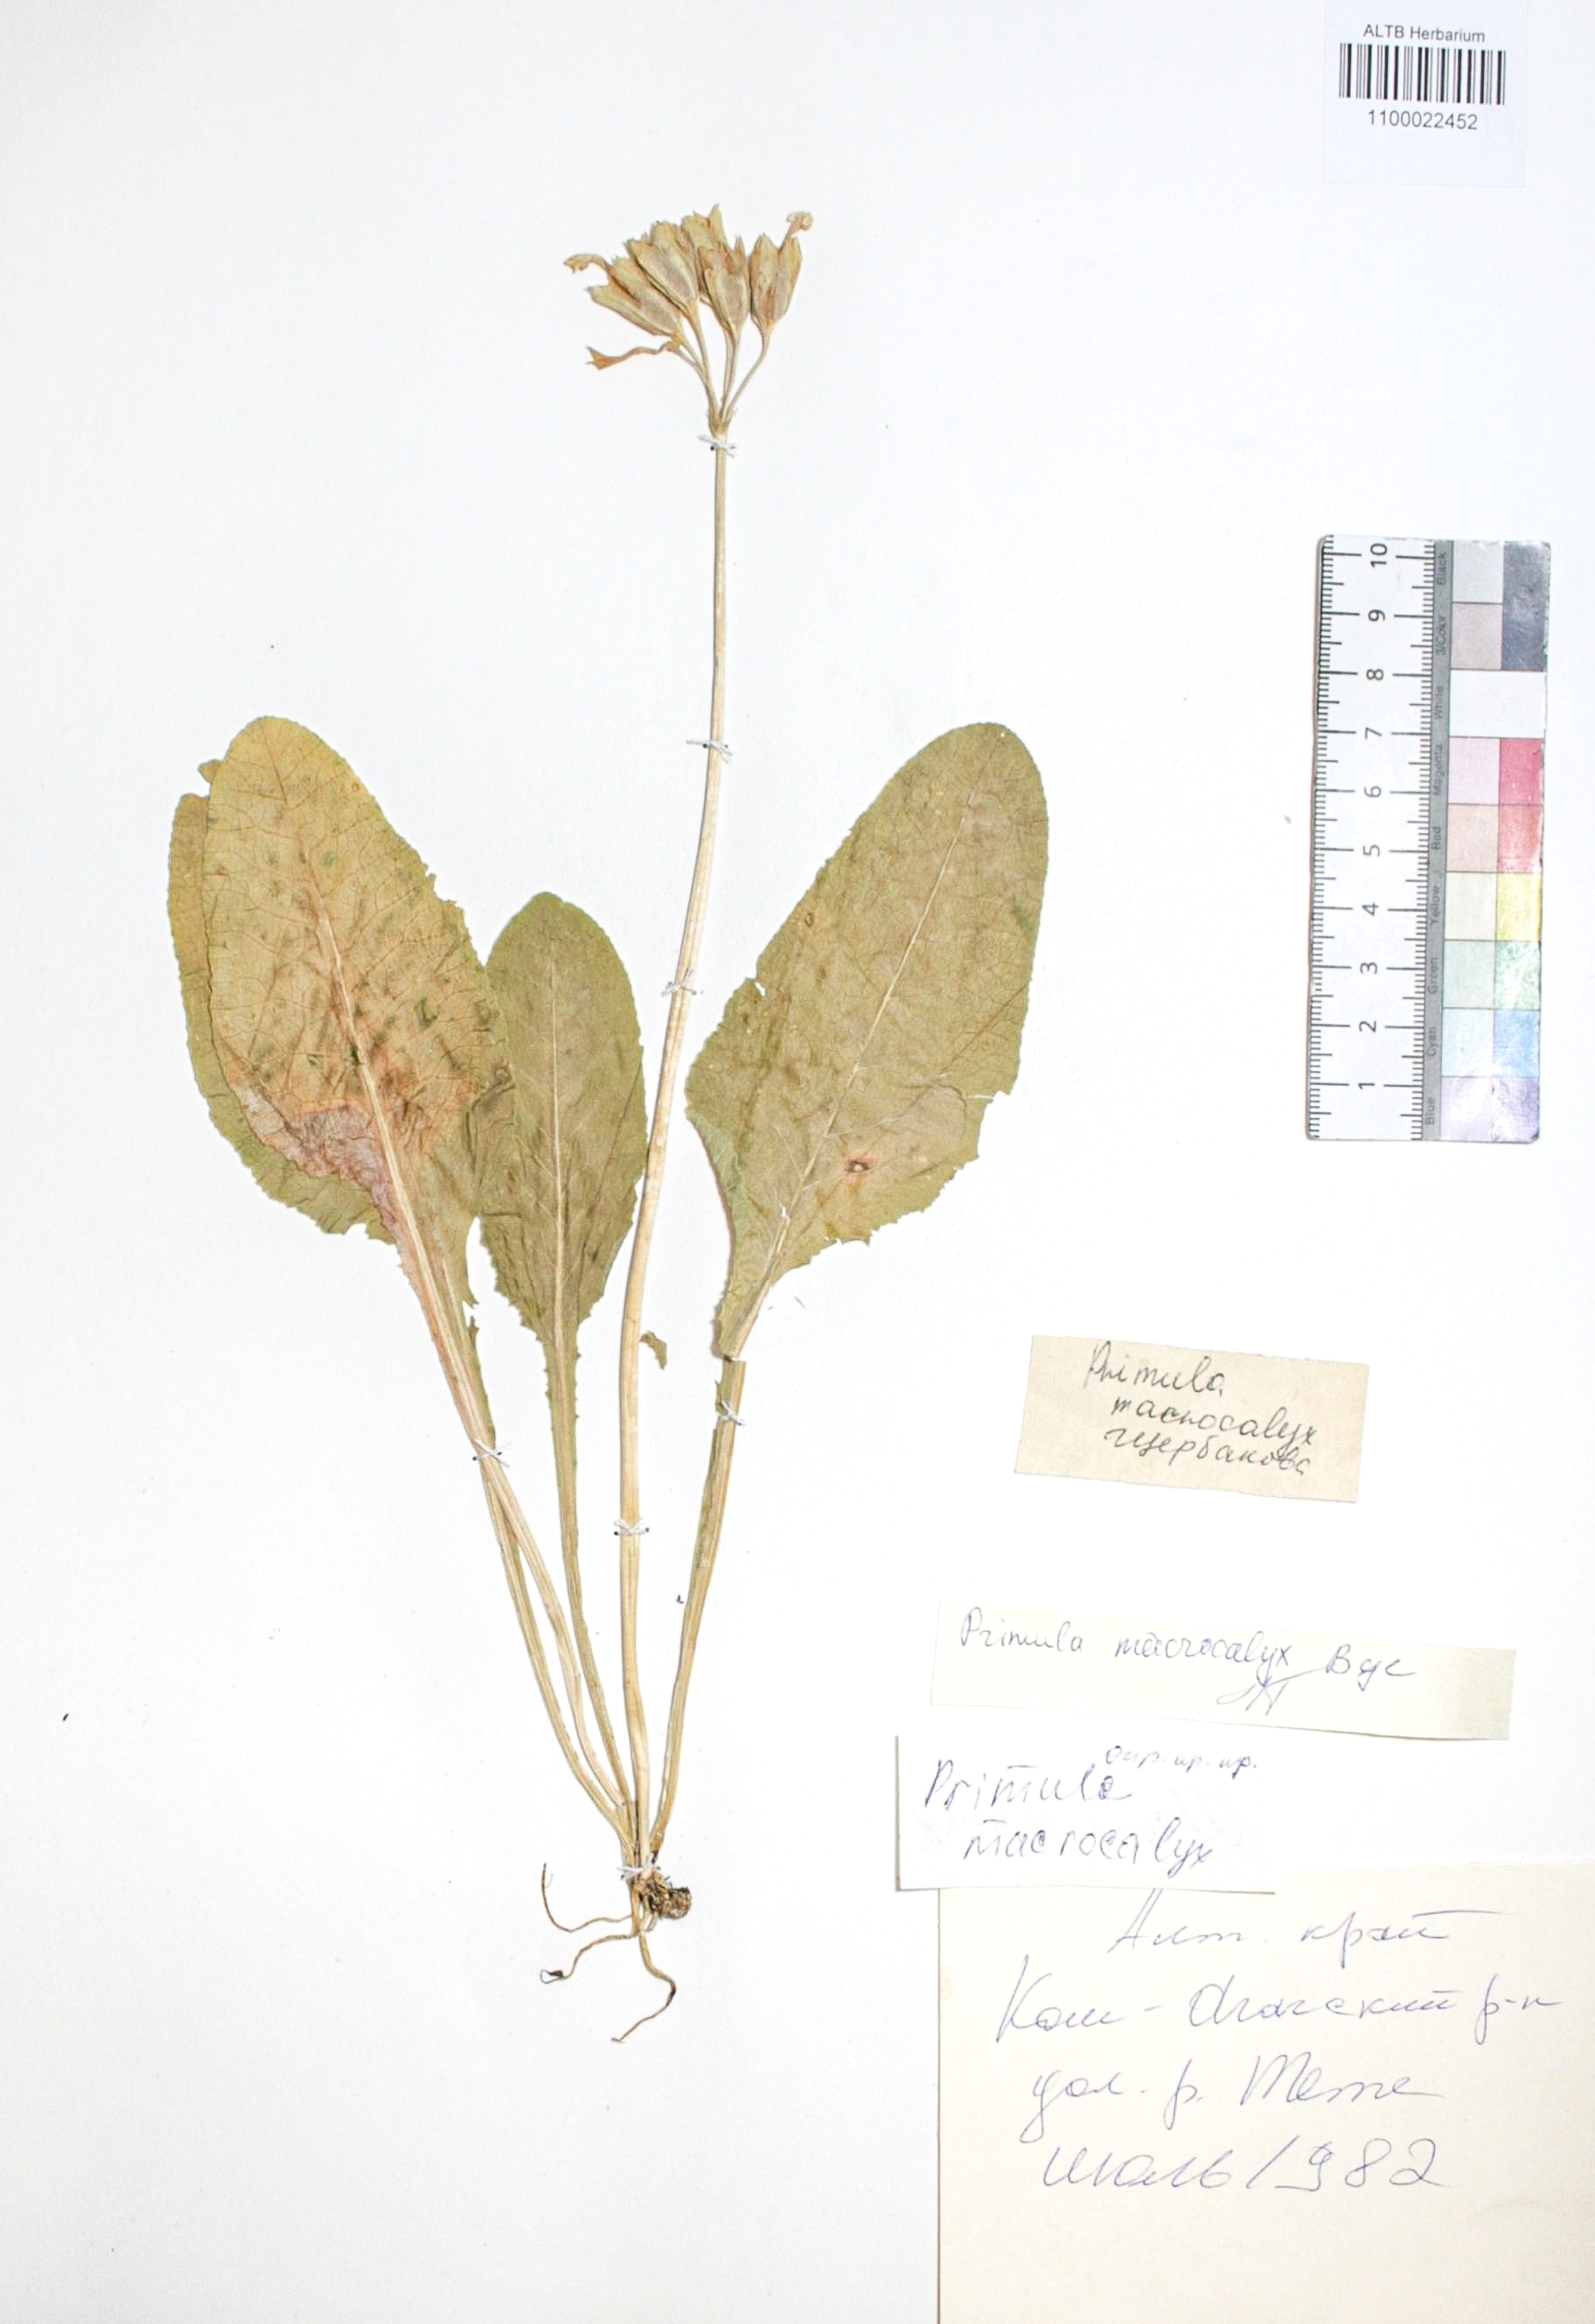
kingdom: Plantae
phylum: Tracheophyta
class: Magnoliopsida
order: Ericales
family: Primulaceae
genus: Primula
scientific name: Primula veris
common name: Cowslip
